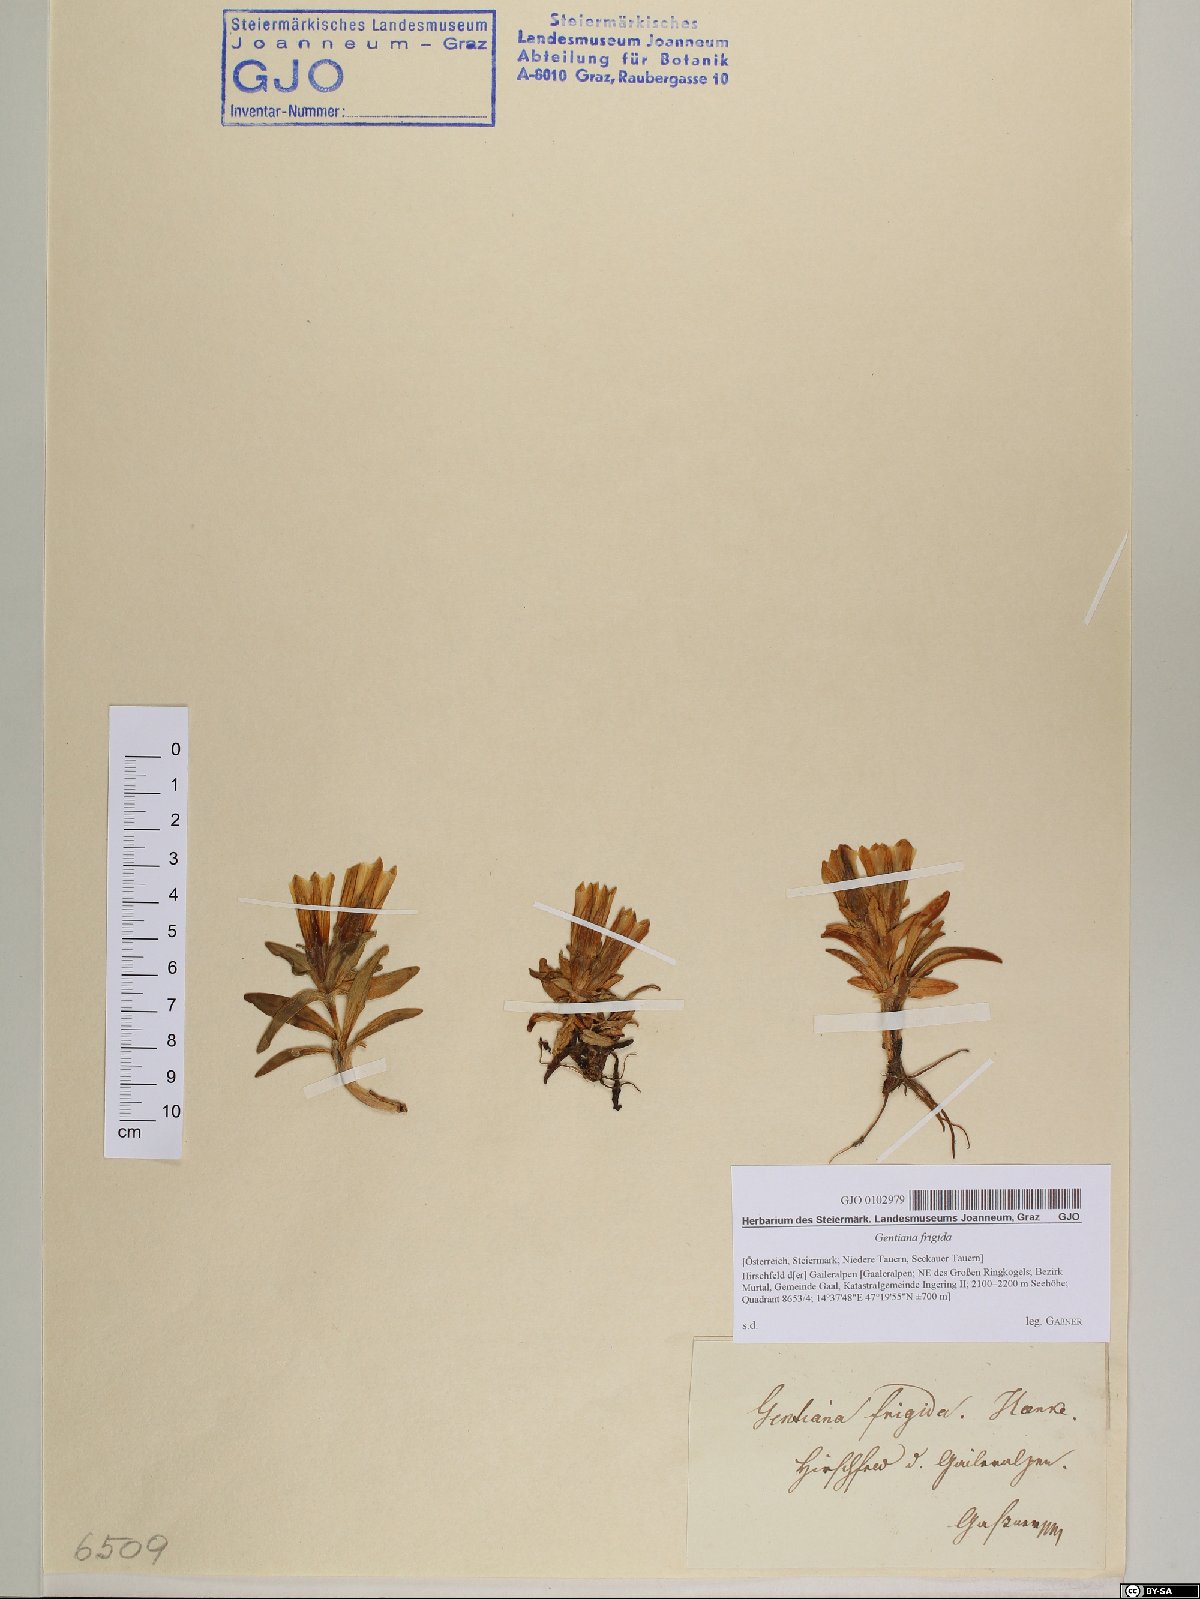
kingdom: Plantae
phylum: Tracheophyta
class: Magnoliopsida
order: Gentianales
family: Gentianaceae
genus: Gentiana
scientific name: Gentiana frigida
